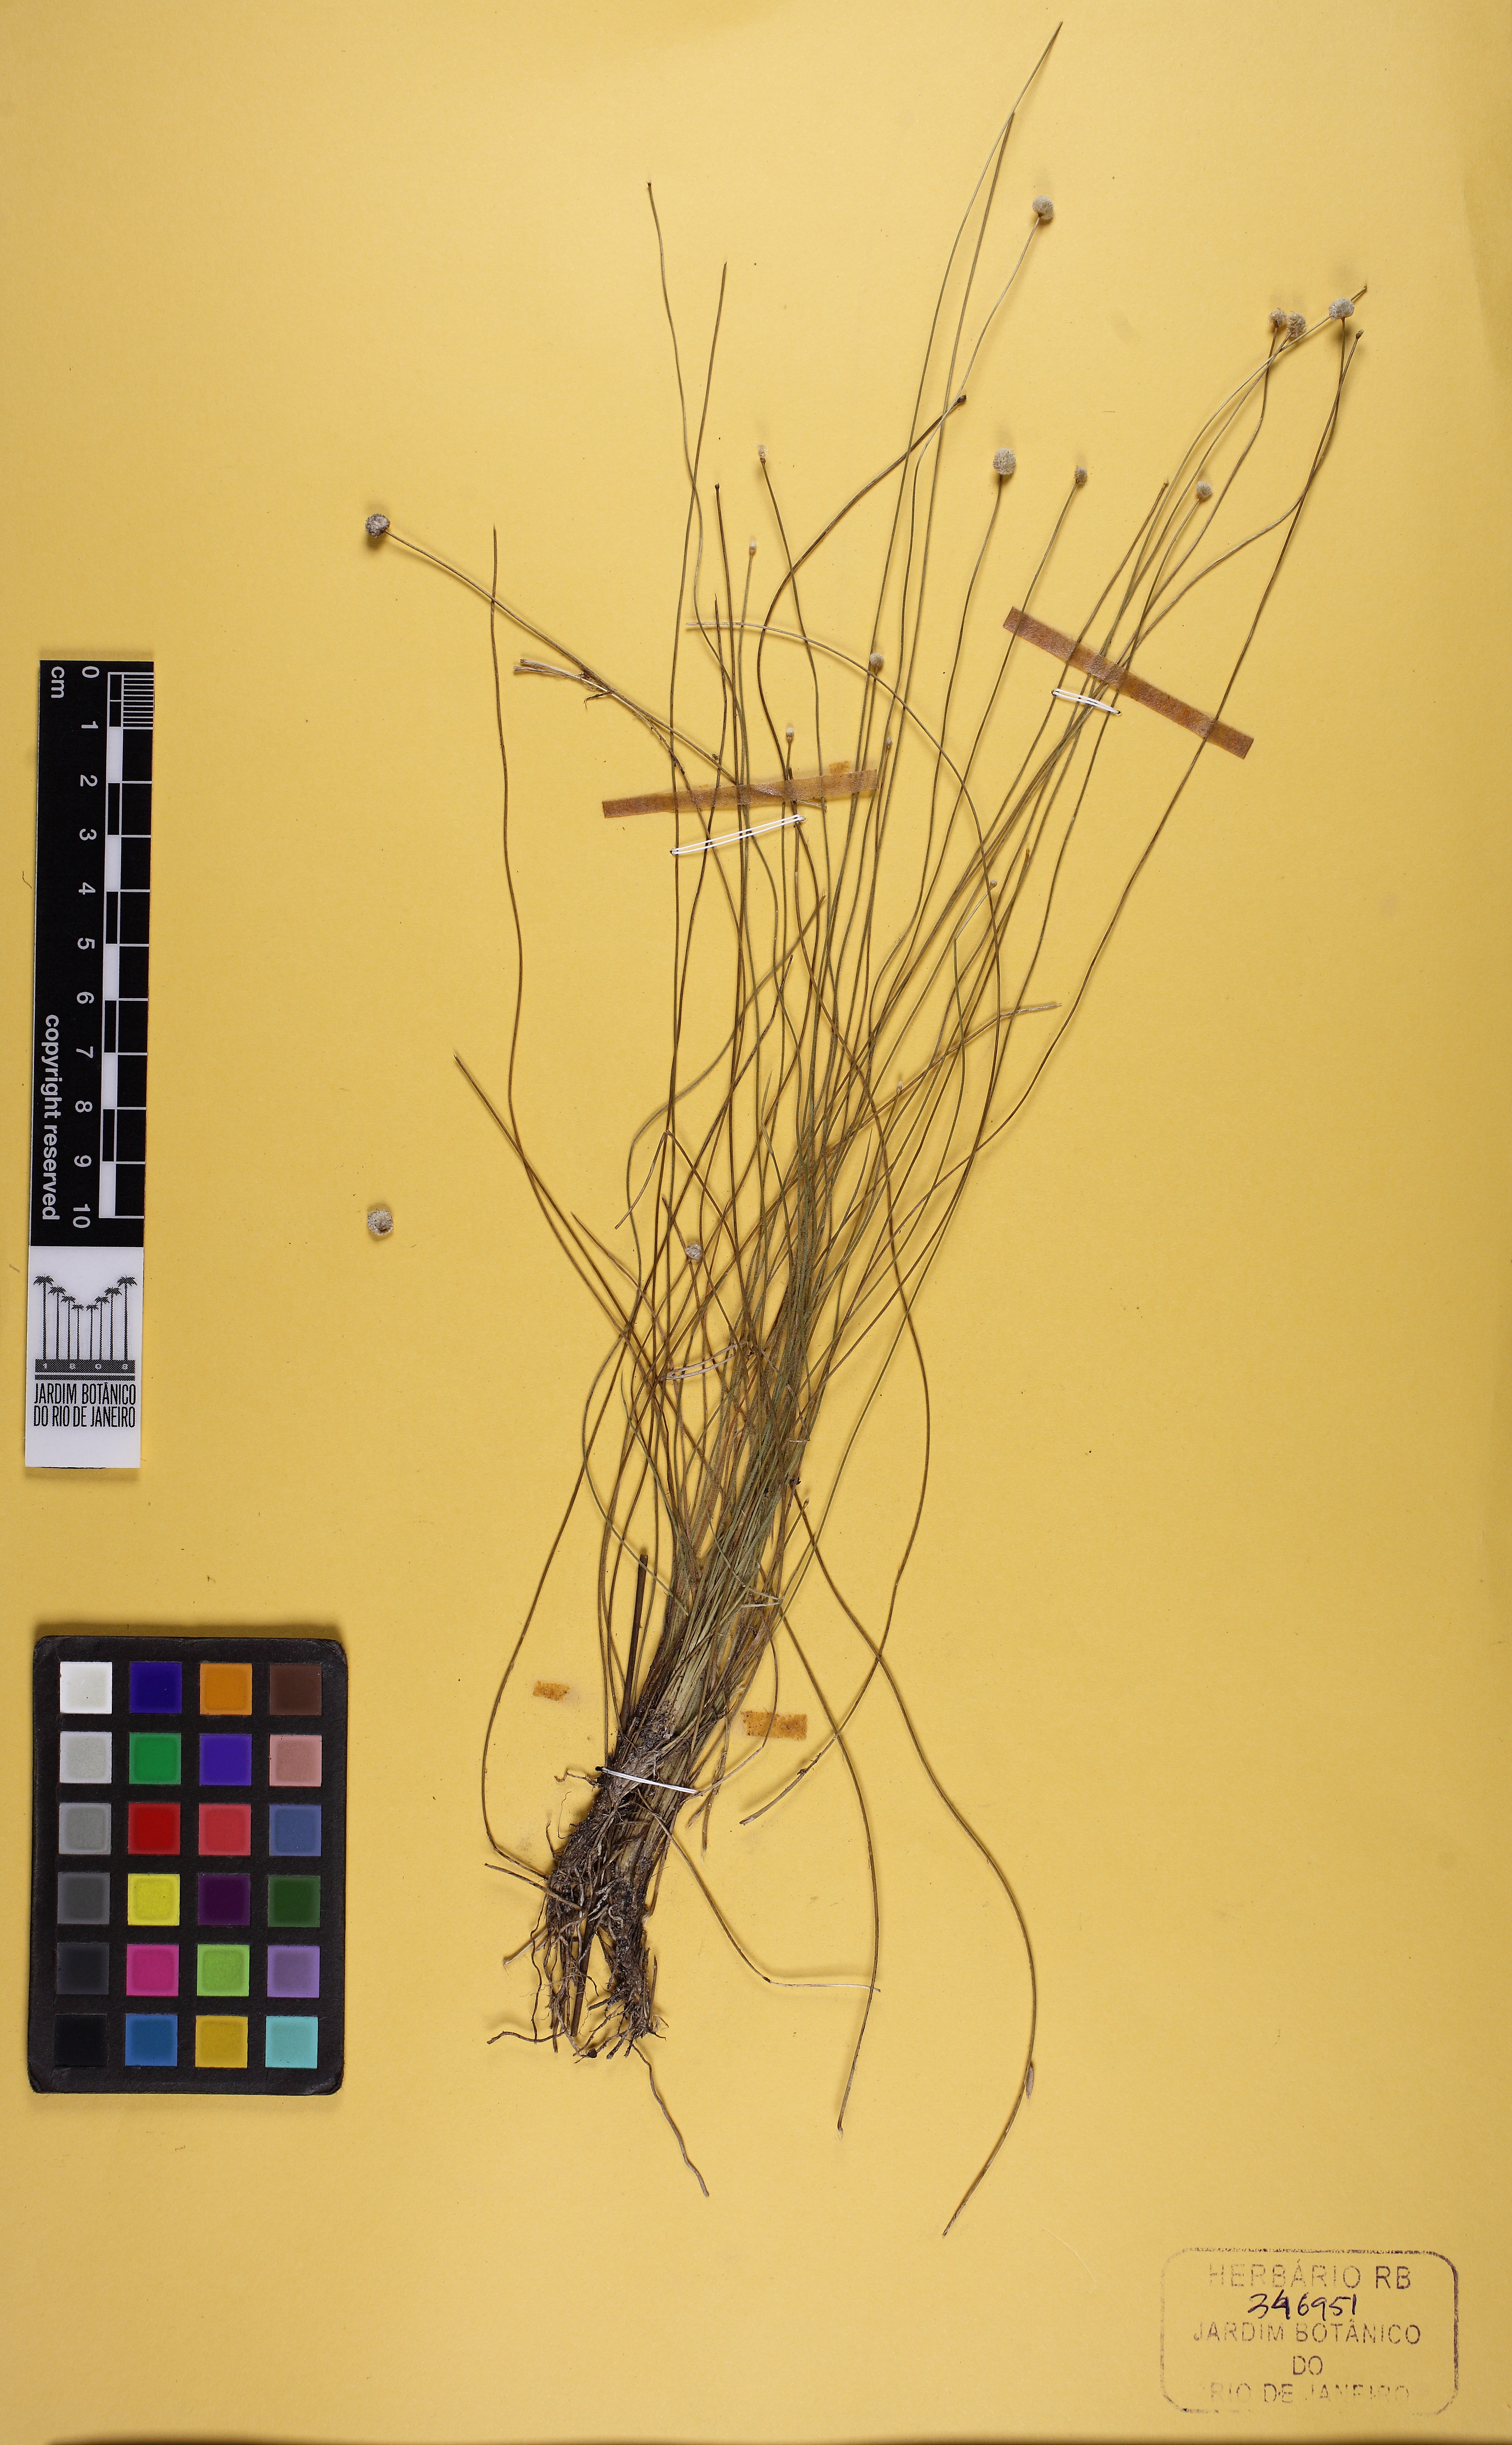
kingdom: Plantae
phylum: Tracheophyta
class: Liliopsida
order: Poales
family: Eriocaulaceae
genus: Leiothrix
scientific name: Leiothrix schlechtendalii
